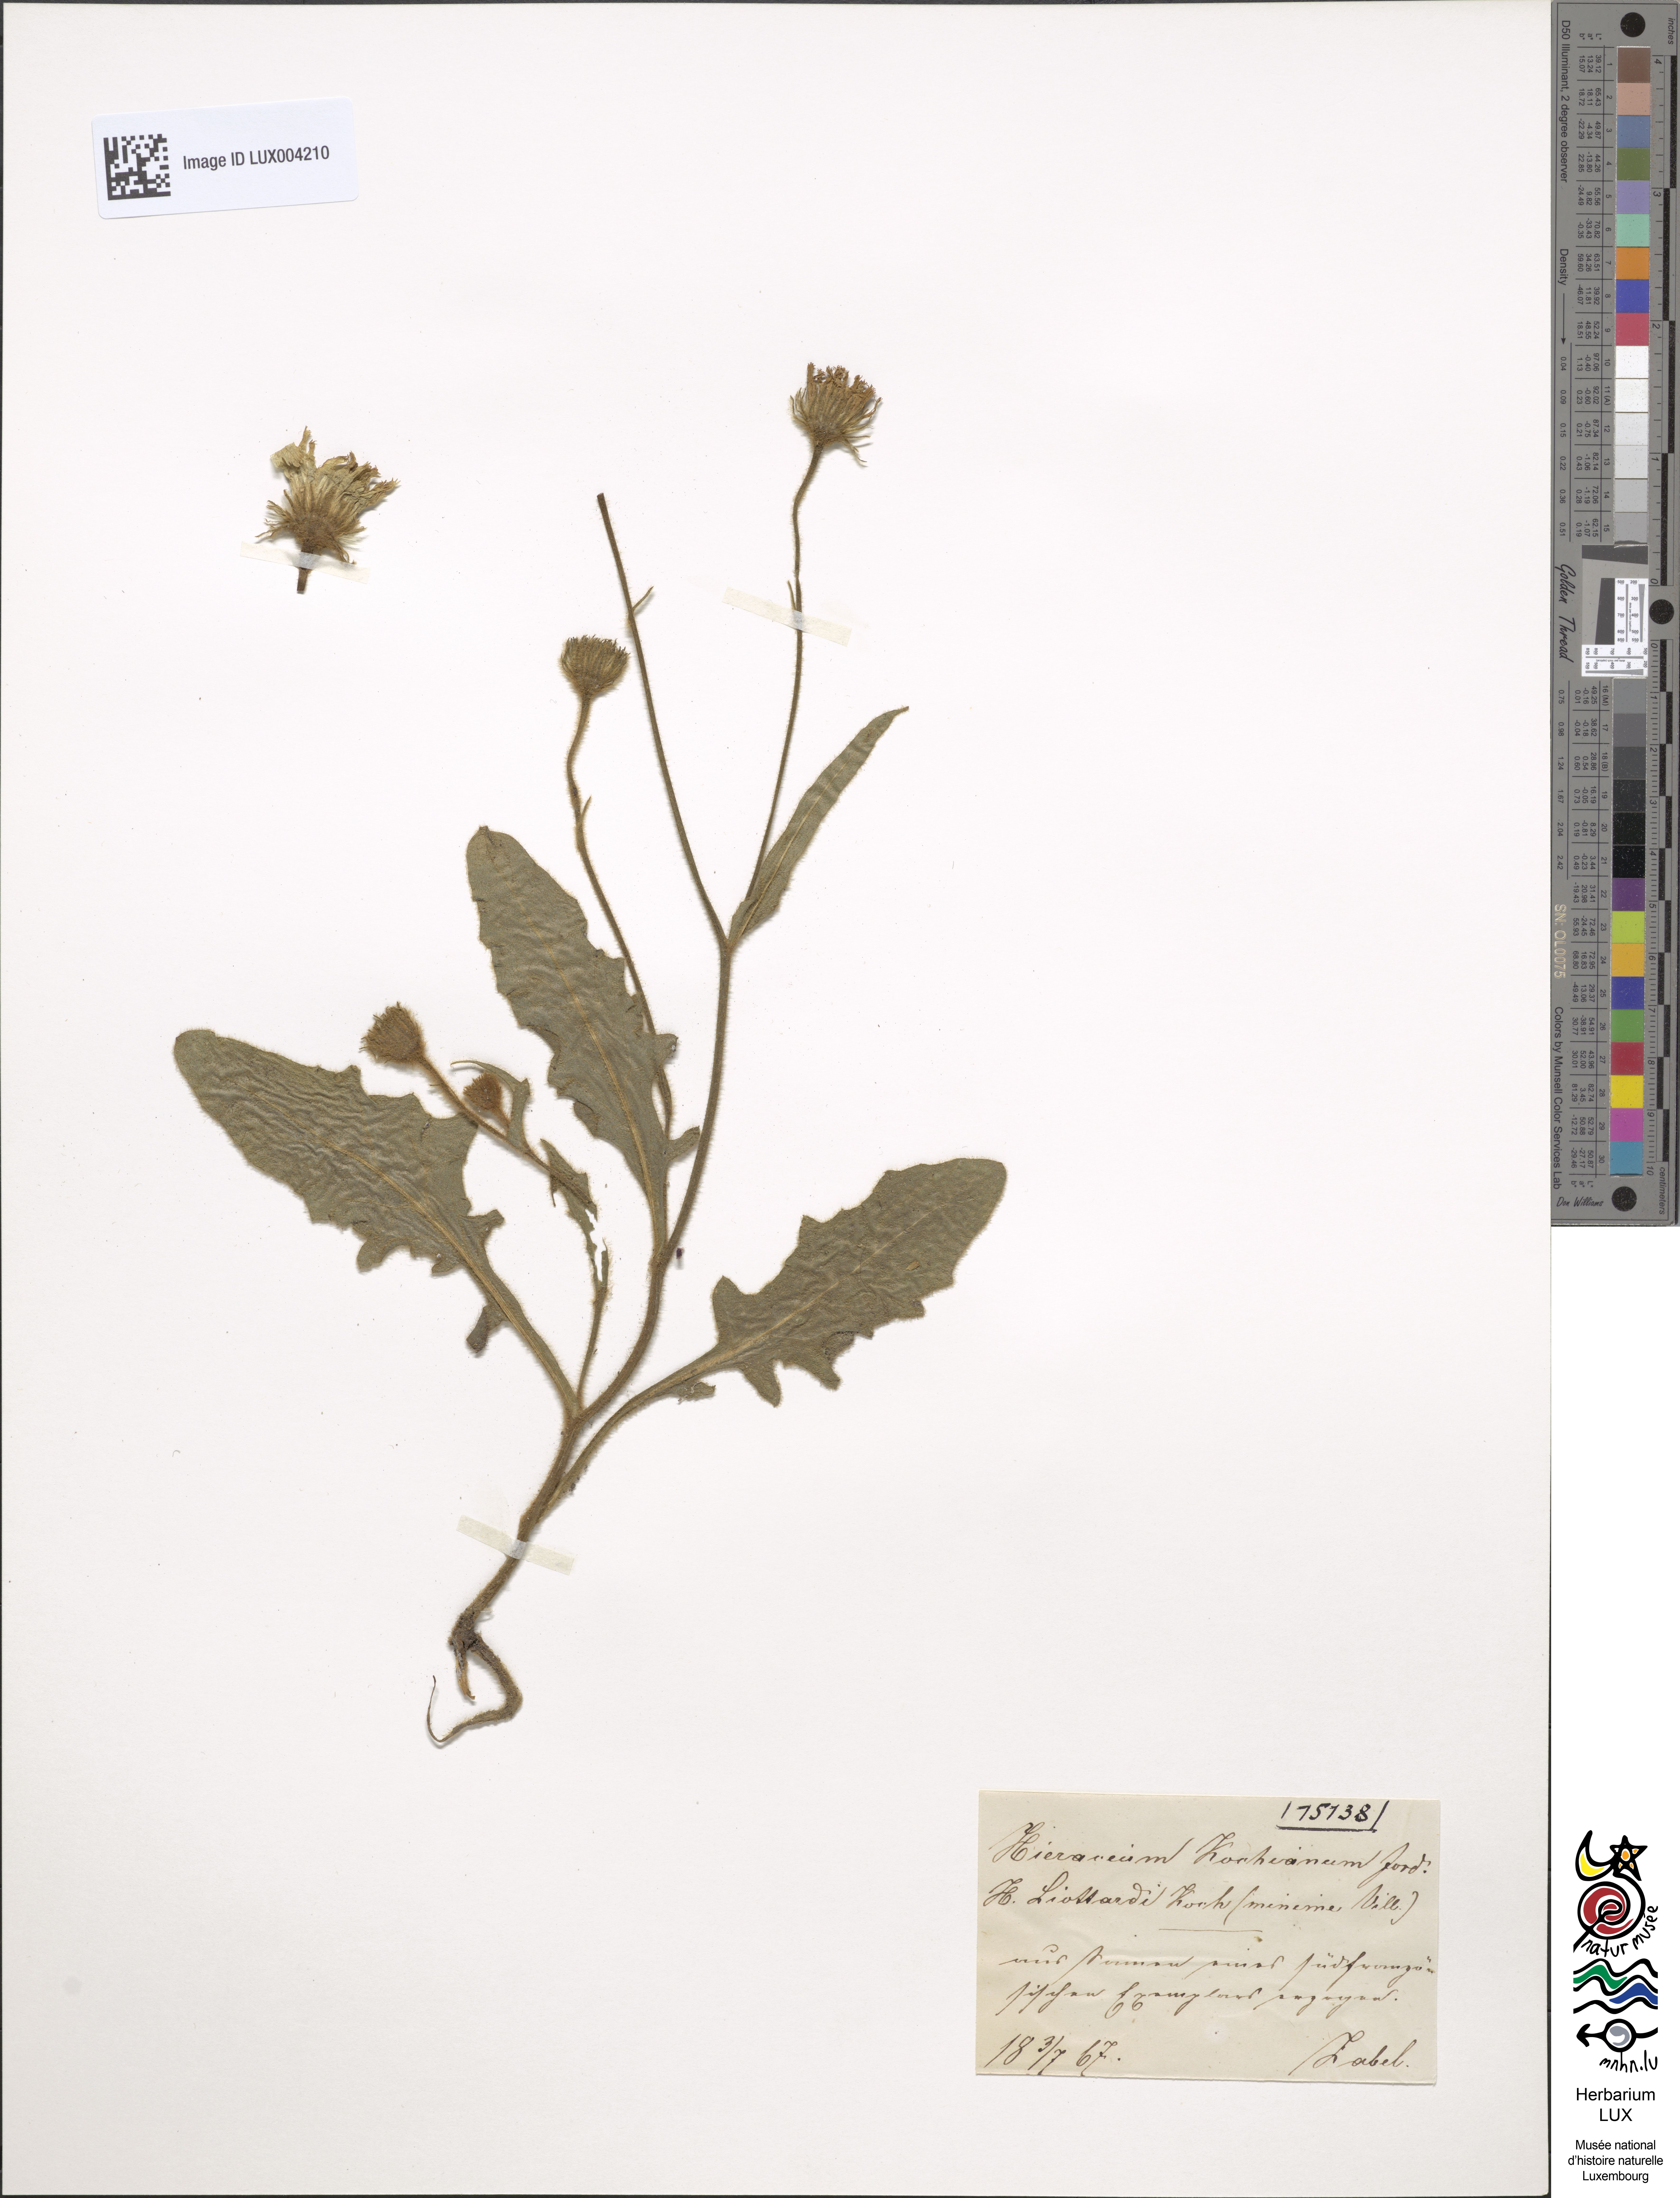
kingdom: Plantae
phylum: Tracheophyta
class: Magnoliopsida
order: Asterales
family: Asteraceae
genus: Hieracium
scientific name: Hieracium kochianum
